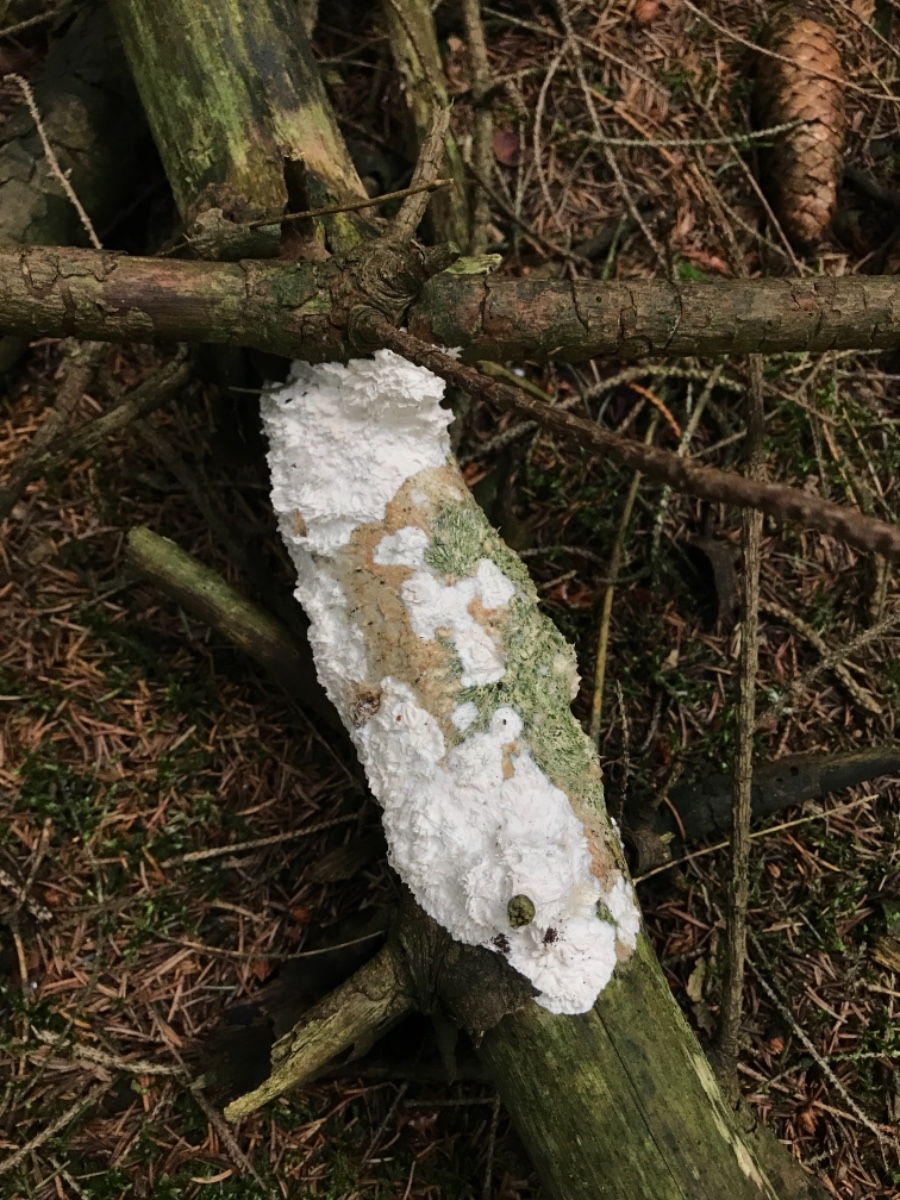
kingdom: Fungi
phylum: Basidiomycota
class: Agaricomycetes
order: Corticiales
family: Corticiaceae
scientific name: Corticiaceae
